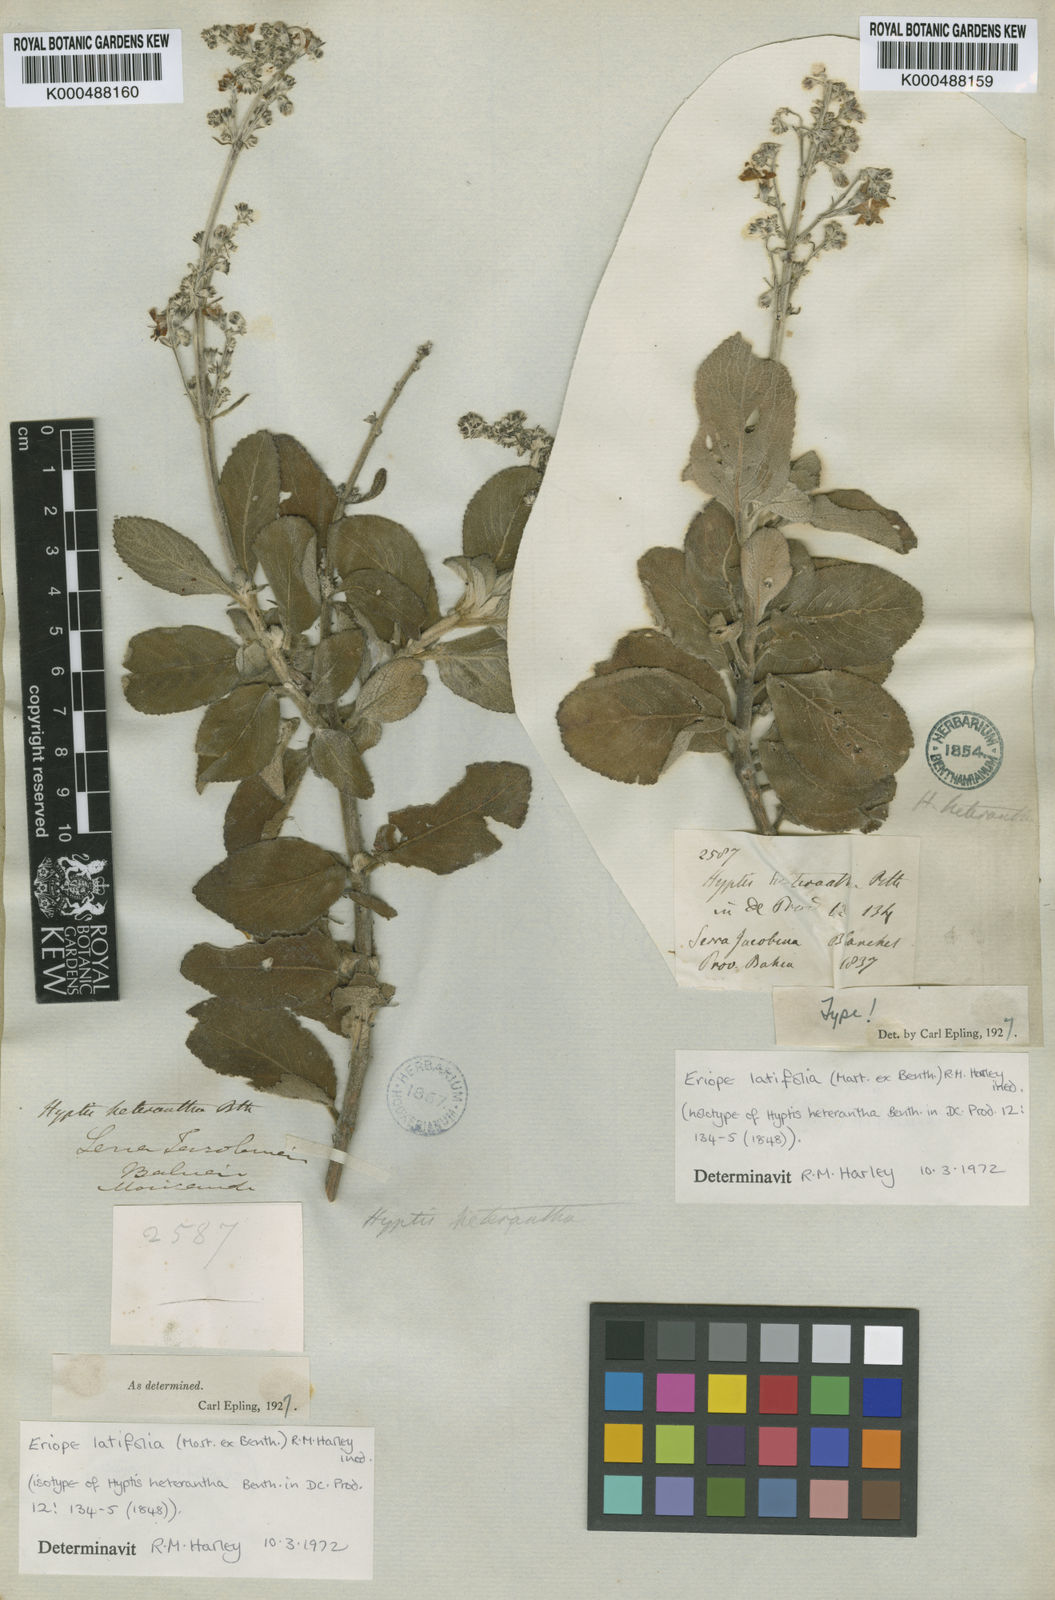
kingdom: Plantae
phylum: Tracheophyta
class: Magnoliopsida
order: Lamiales
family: Lamiaceae
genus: Eriope
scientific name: Eriope latifolia
